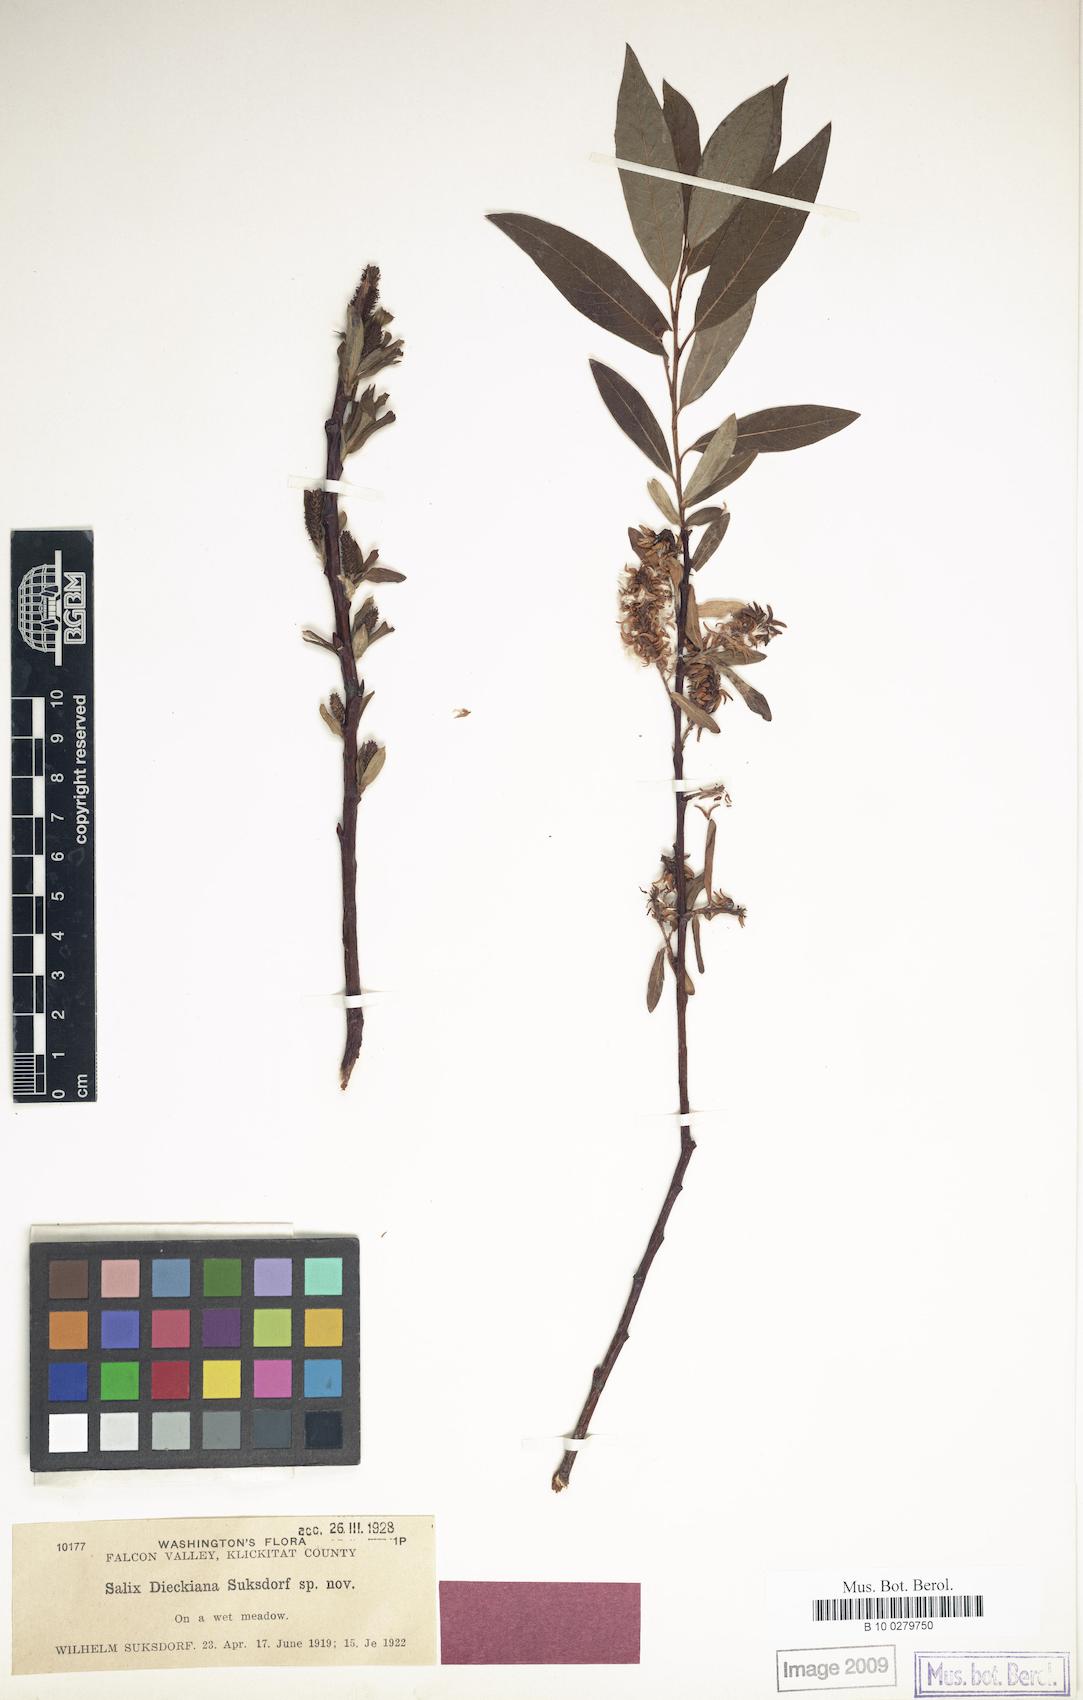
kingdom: Plantae
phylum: Tracheophyta
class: Magnoliopsida
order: Malpighiales
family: Salicaceae
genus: Salix
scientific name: Salix dieckiana
